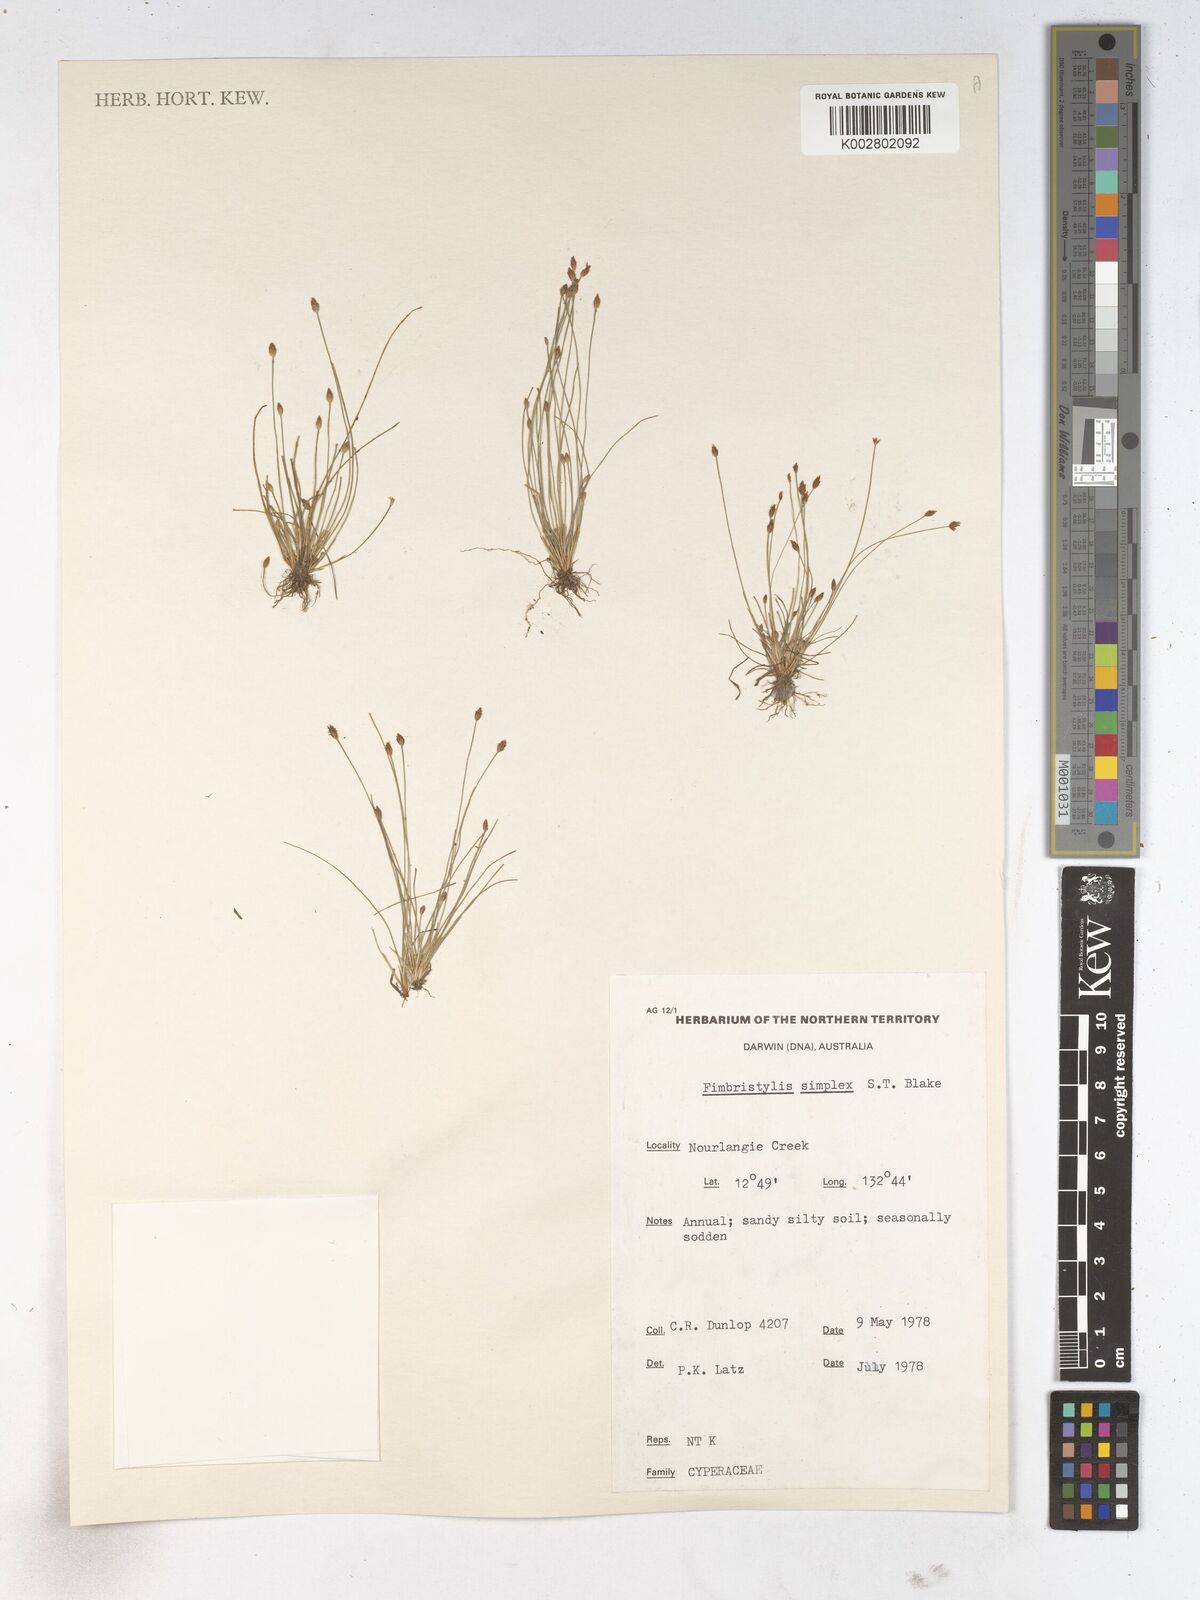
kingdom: Plantae
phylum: Tracheophyta
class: Liliopsida
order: Poales
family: Cyperaceae
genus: Fimbristylis
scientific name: Fimbristylis simplex
